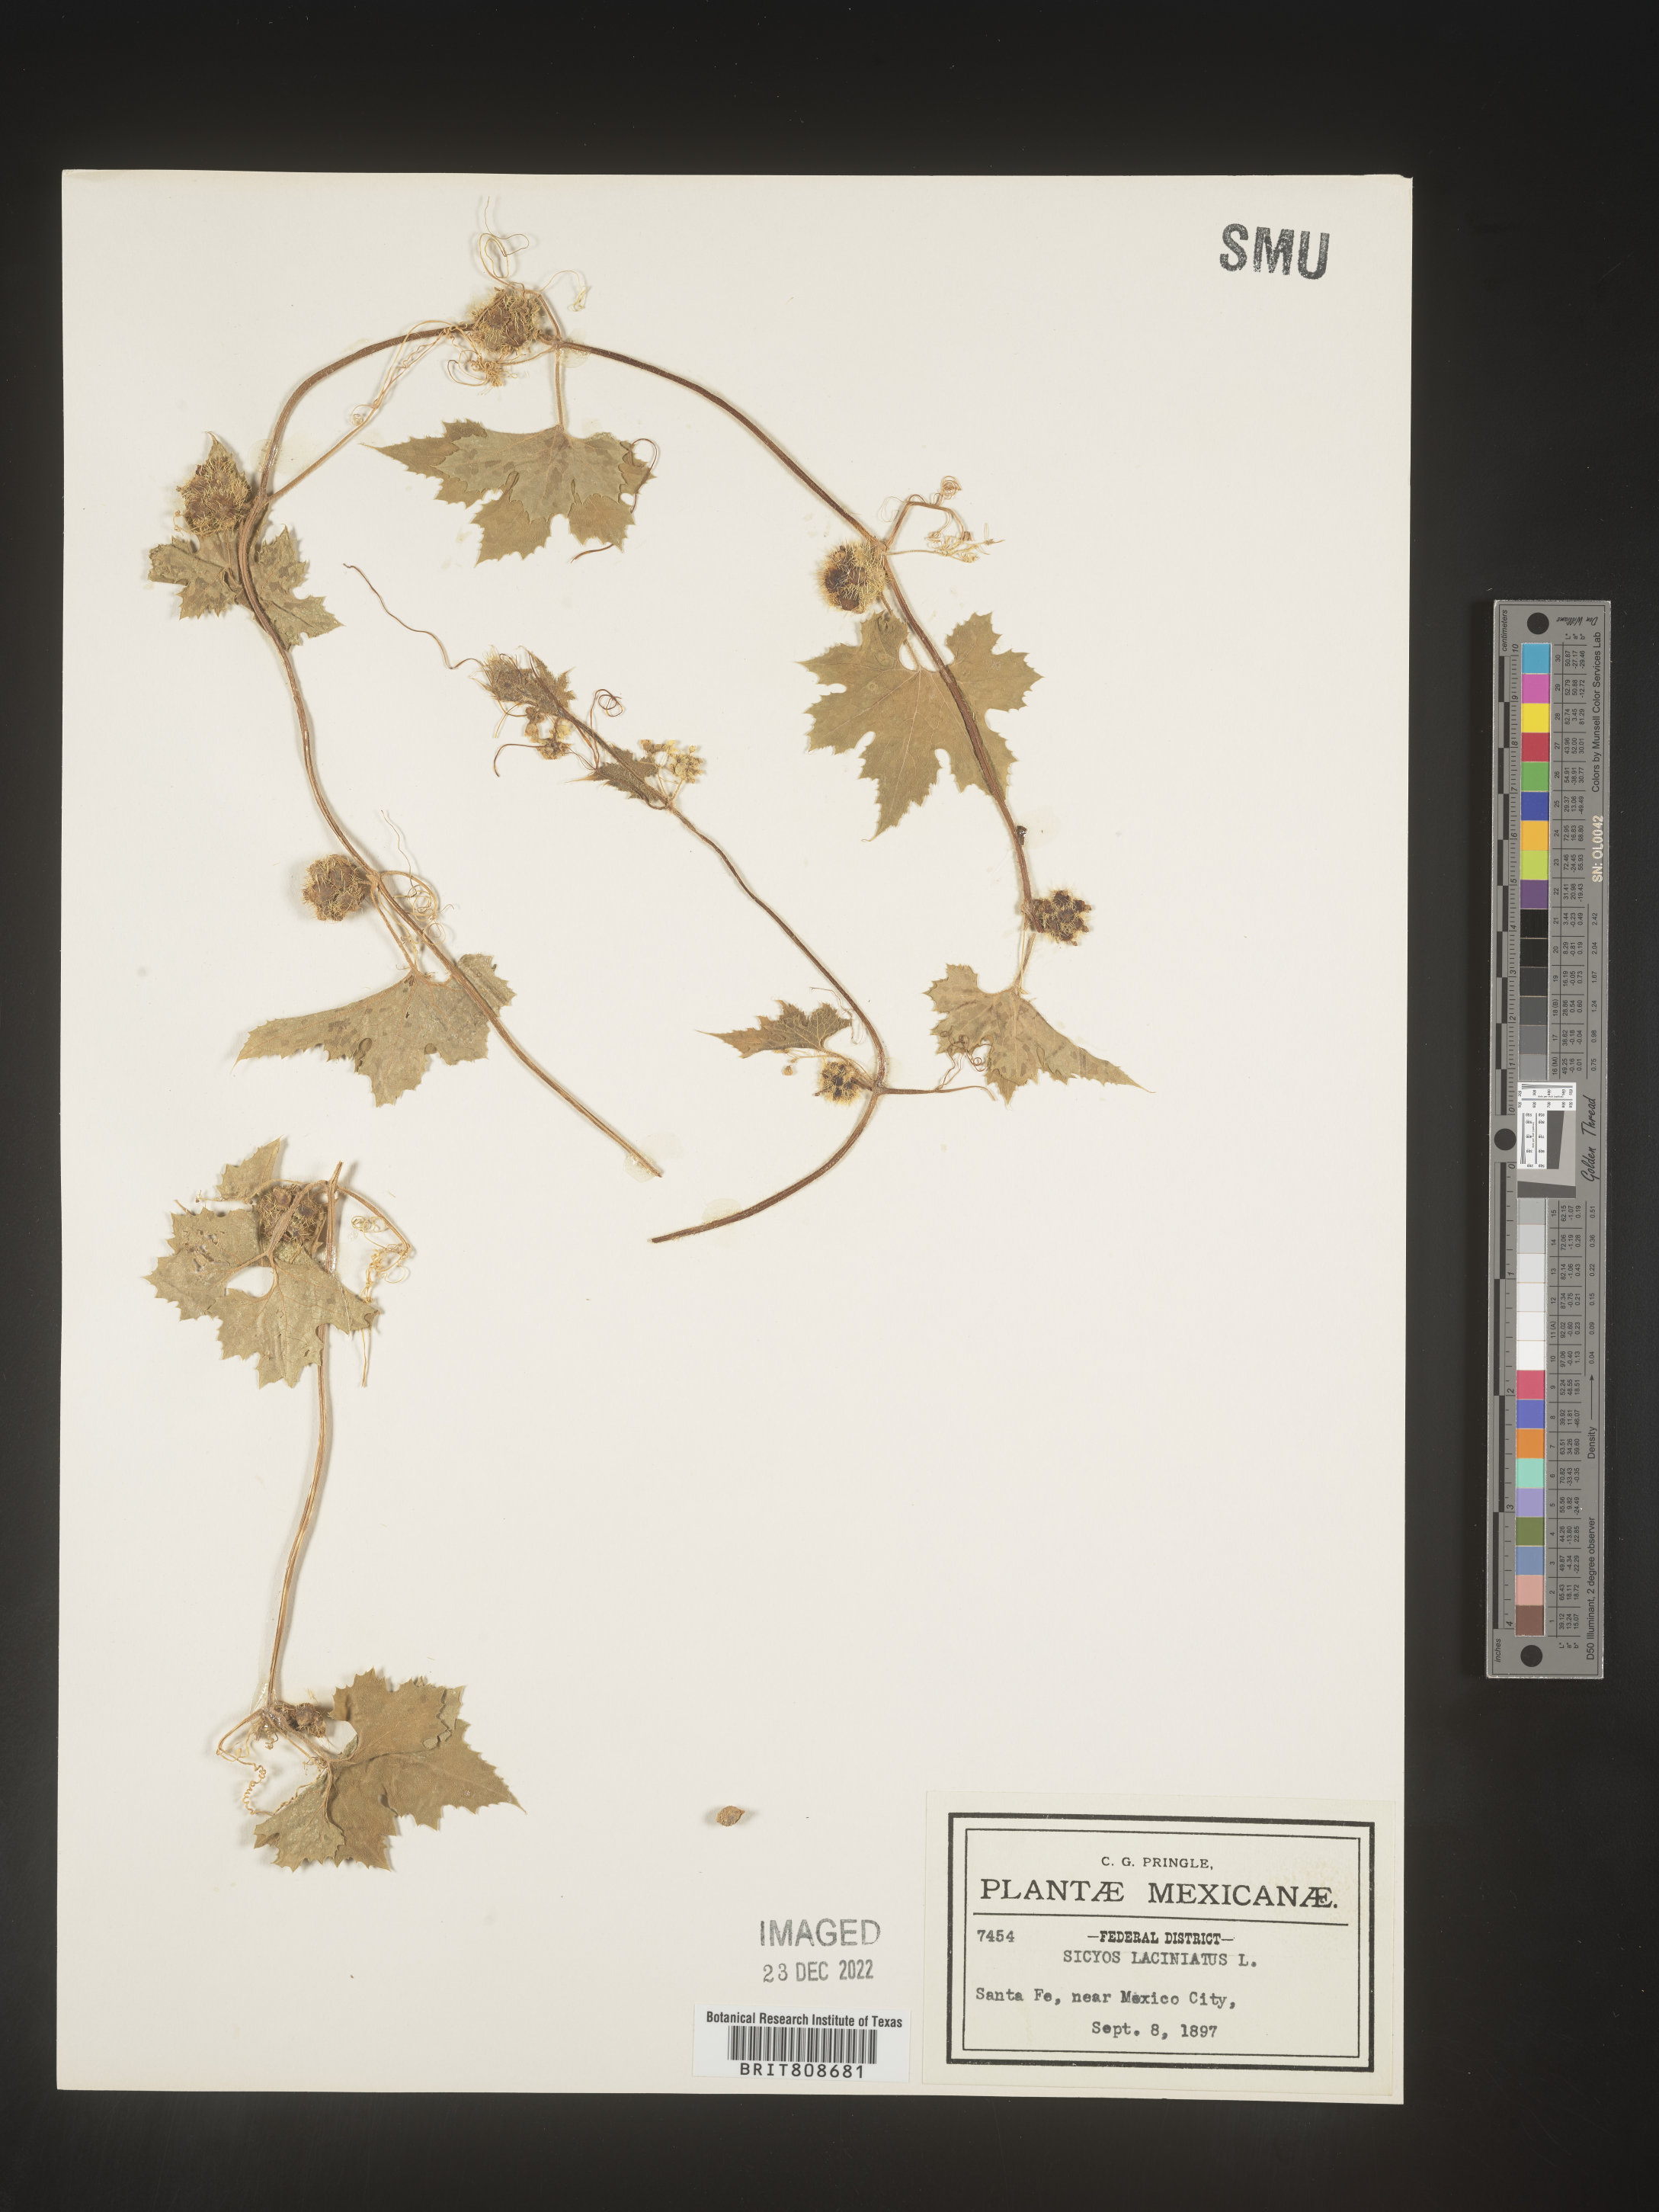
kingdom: Plantae
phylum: Tracheophyta
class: Magnoliopsida
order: Cucurbitales
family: Cucurbitaceae
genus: Sicyos
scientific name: Sicyos
